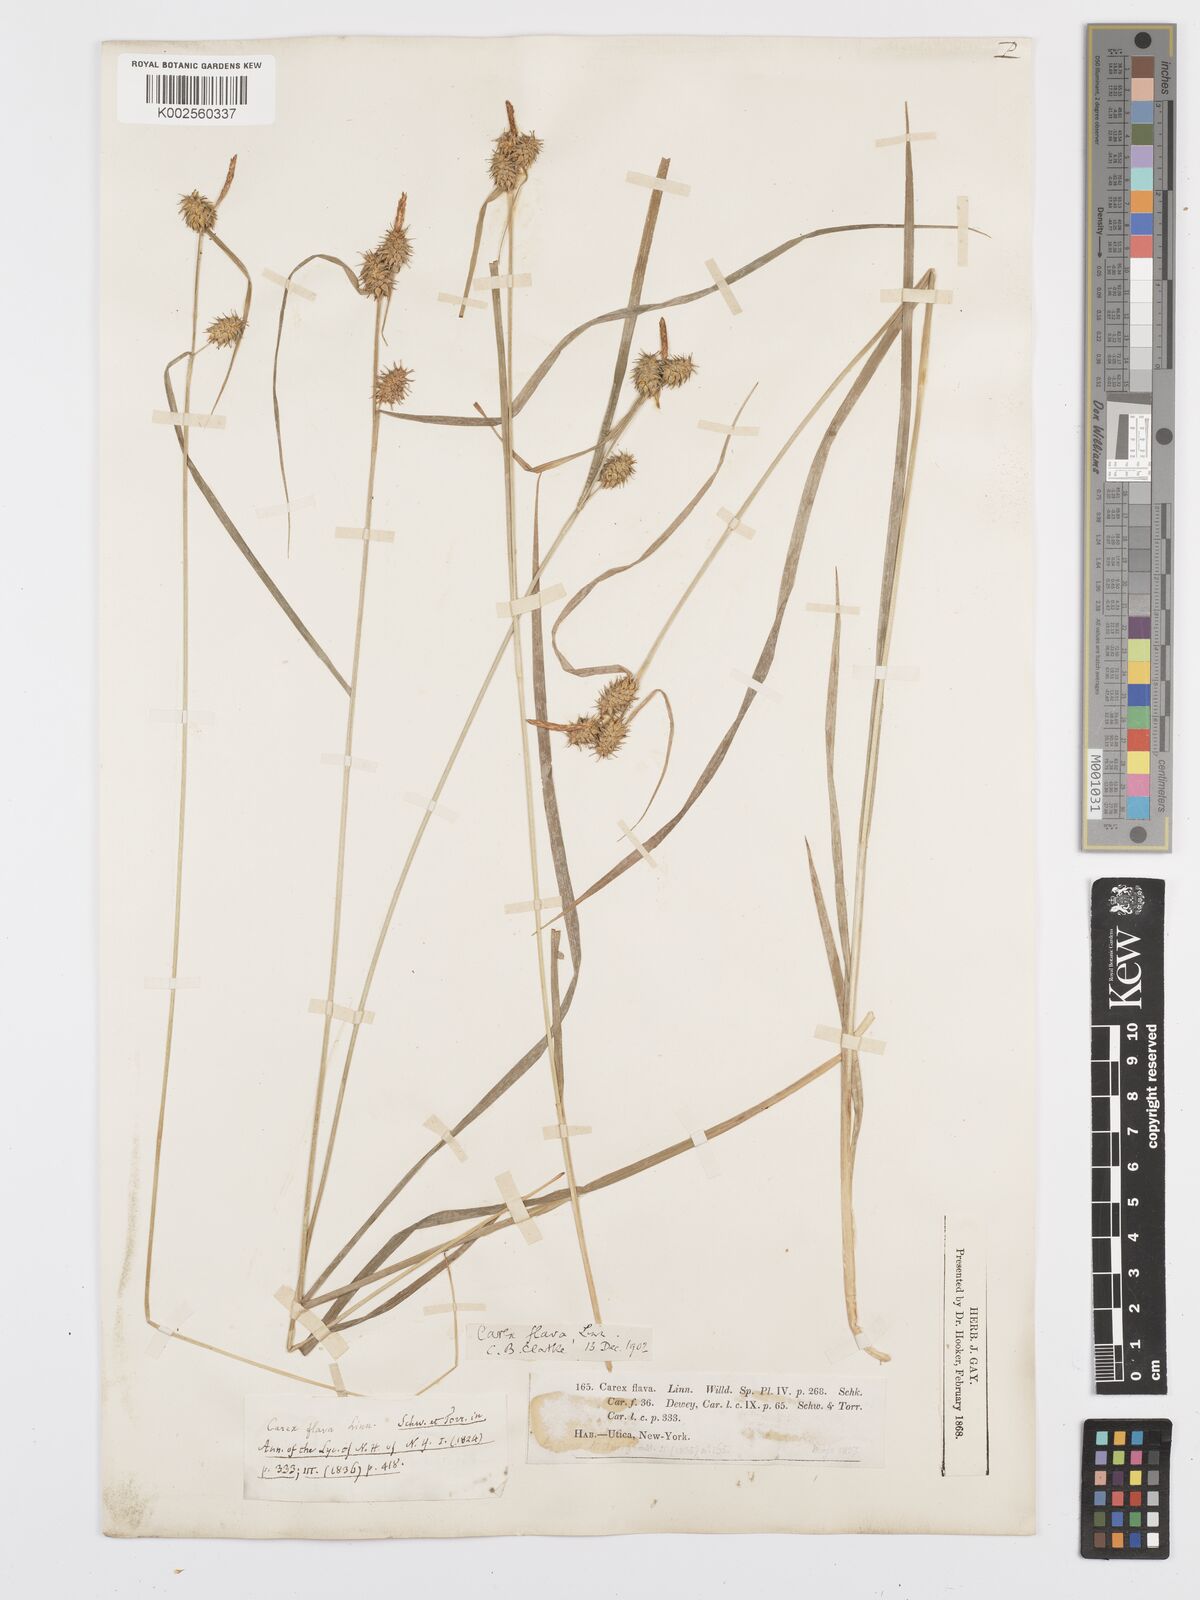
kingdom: Plantae
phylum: Tracheophyta
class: Liliopsida
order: Poales
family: Cyperaceae
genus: Carex
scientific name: Carex flava
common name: Large yellow-sedge
